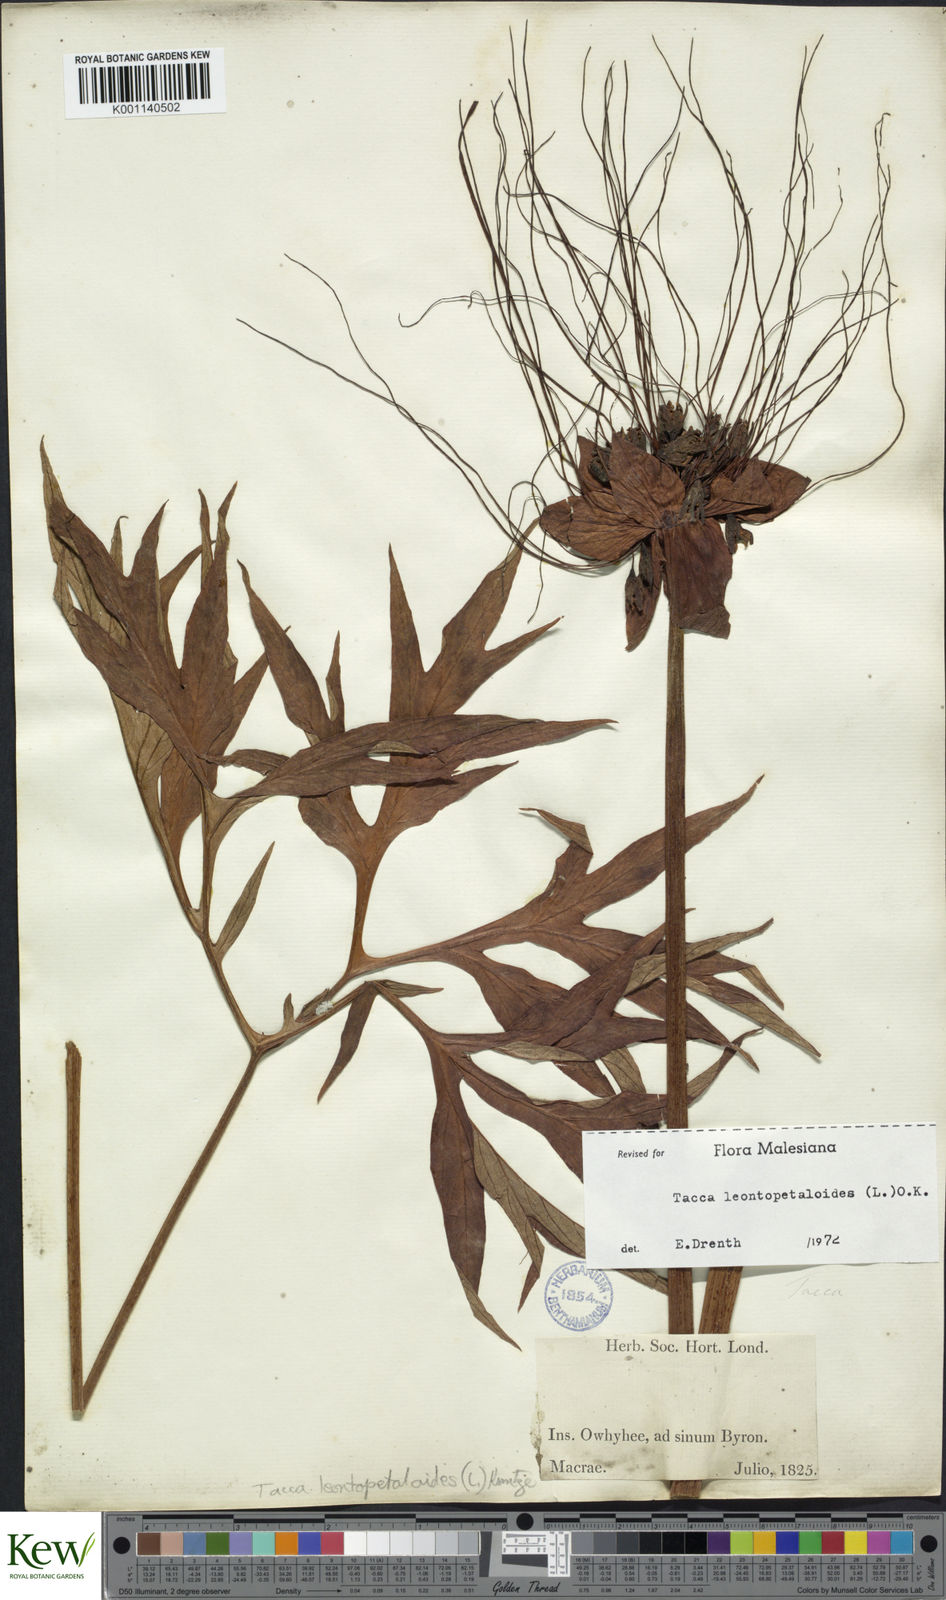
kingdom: Plantae
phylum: Tracheophyta
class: Liliopsida
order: Dioscoreales
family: Dioscoreaceae
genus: Tacca
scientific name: Tacca leontopetaloides
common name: Arrowroot
